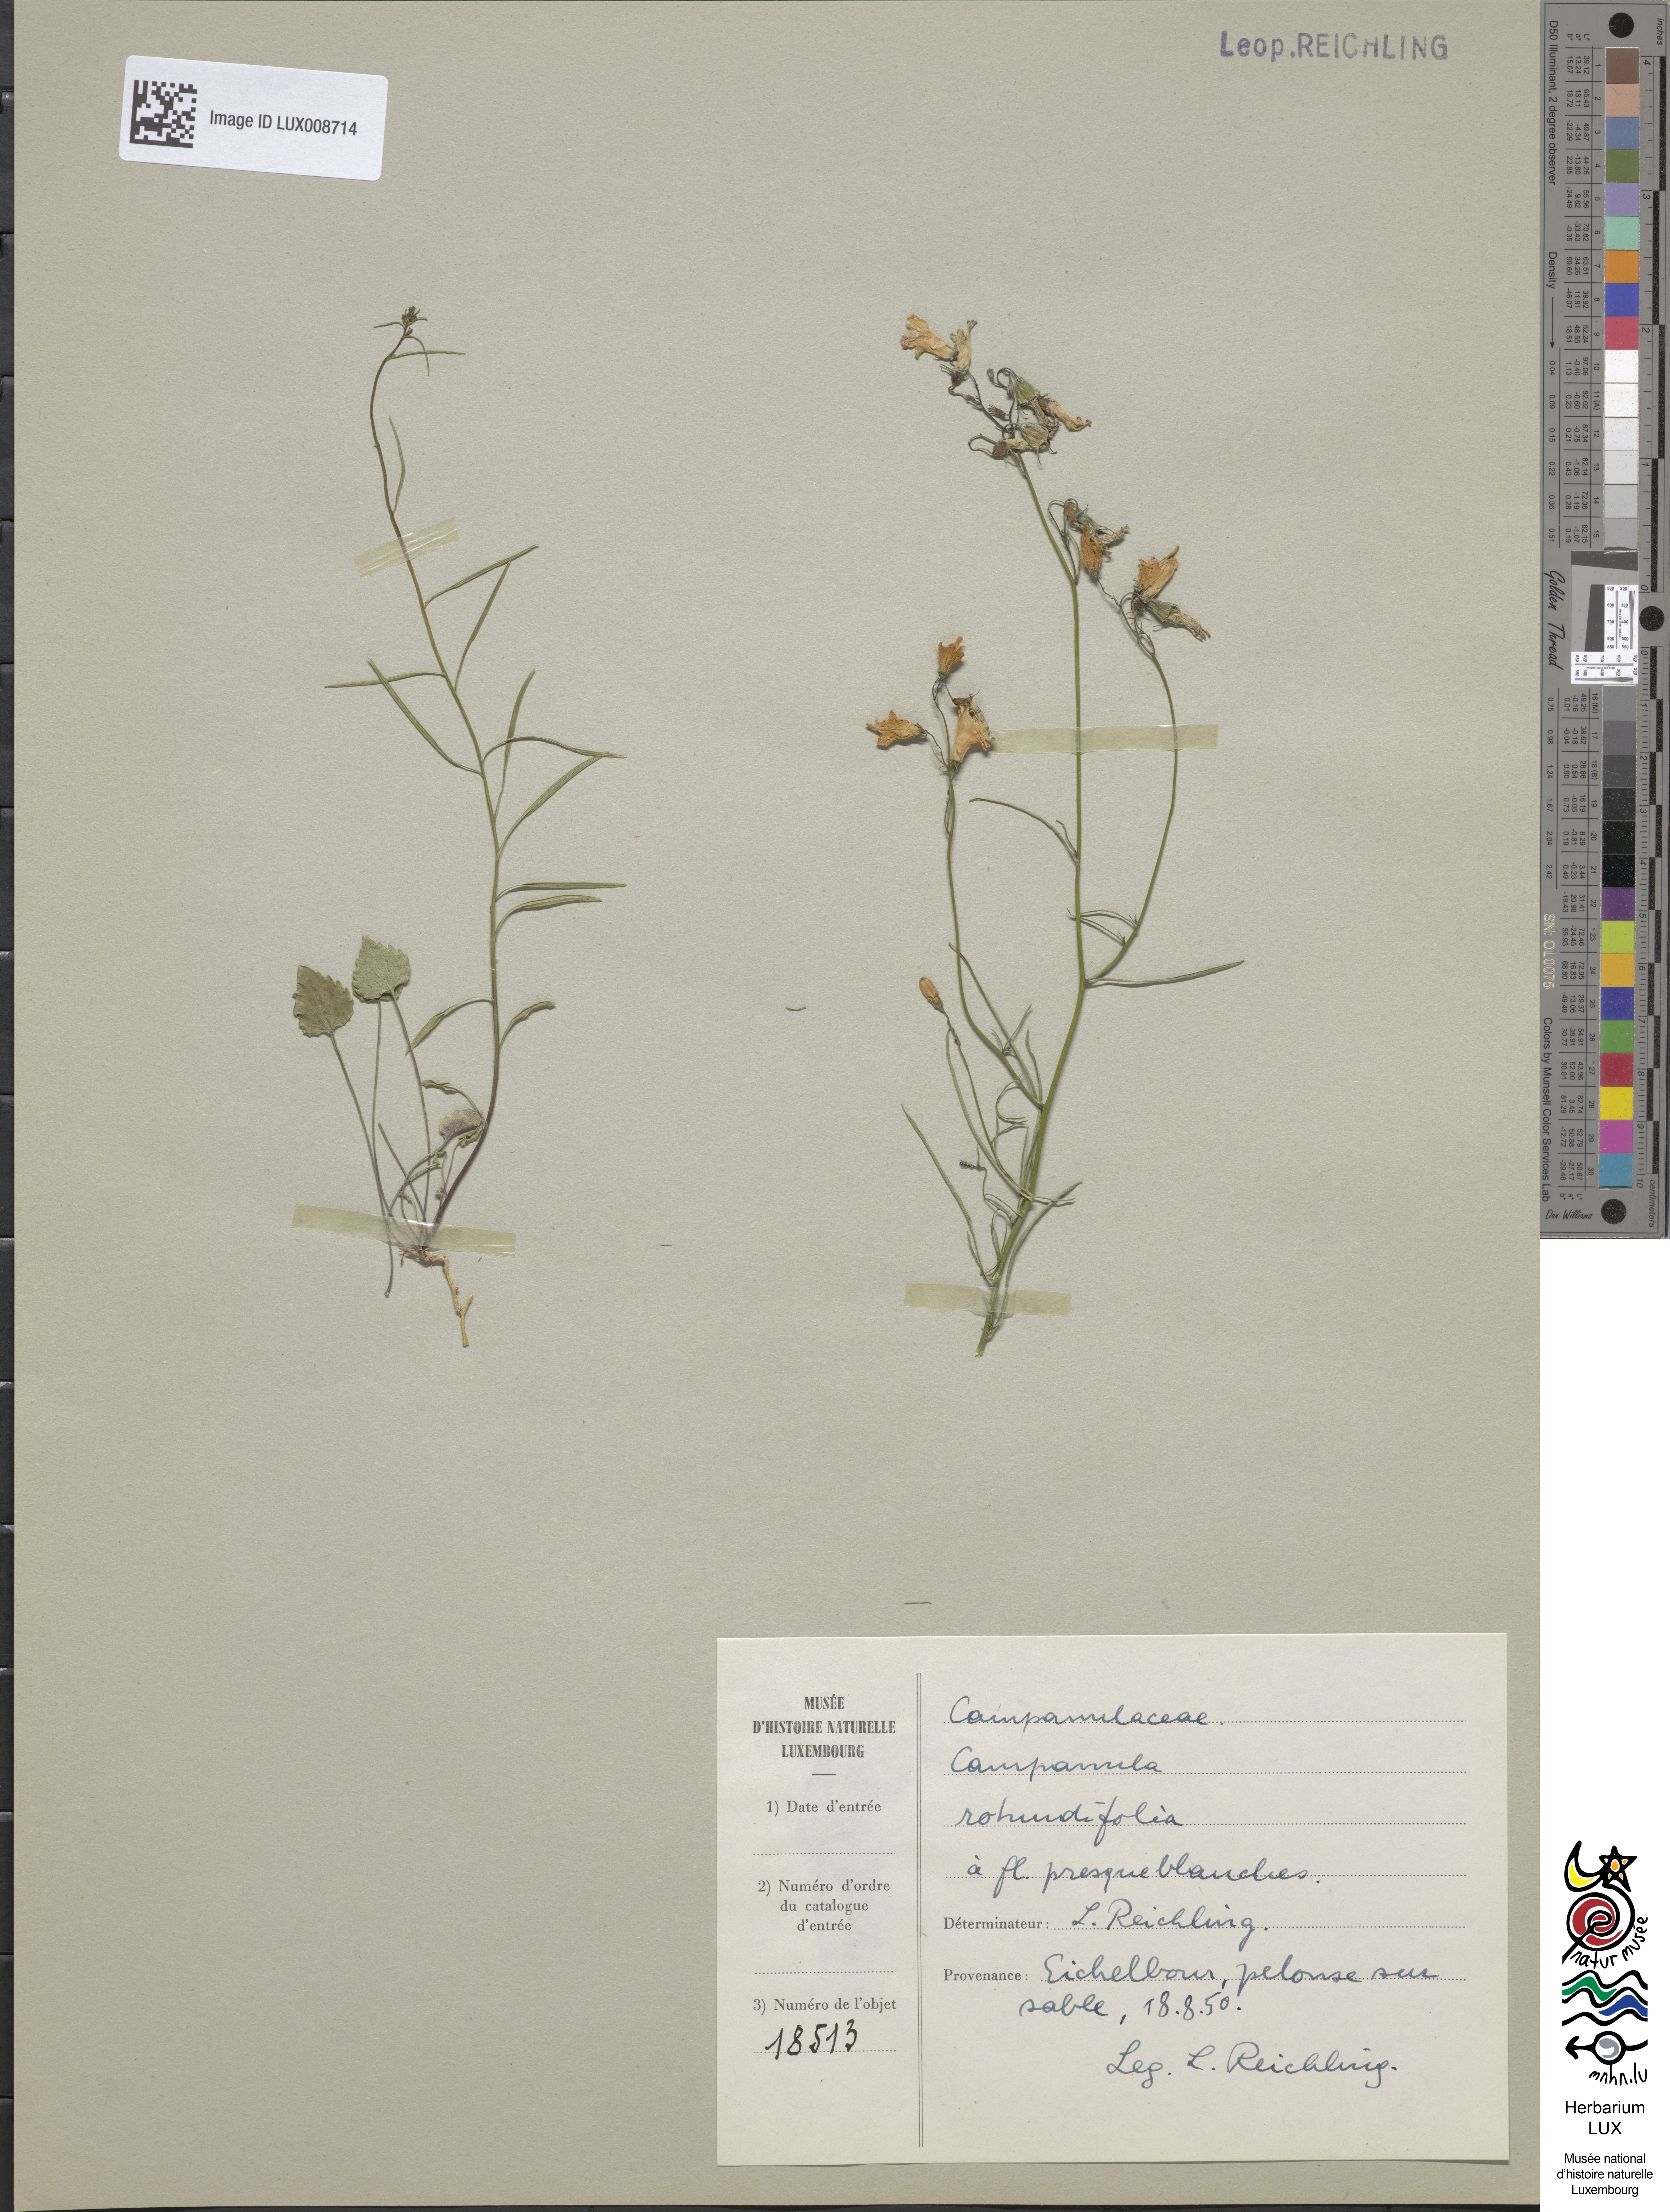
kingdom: Plantae
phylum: Tracheophyta
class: Magnoliopsida
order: Asterales
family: Campanulaceae
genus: Campanula
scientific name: Campanula rotundifolia
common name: Harebell
